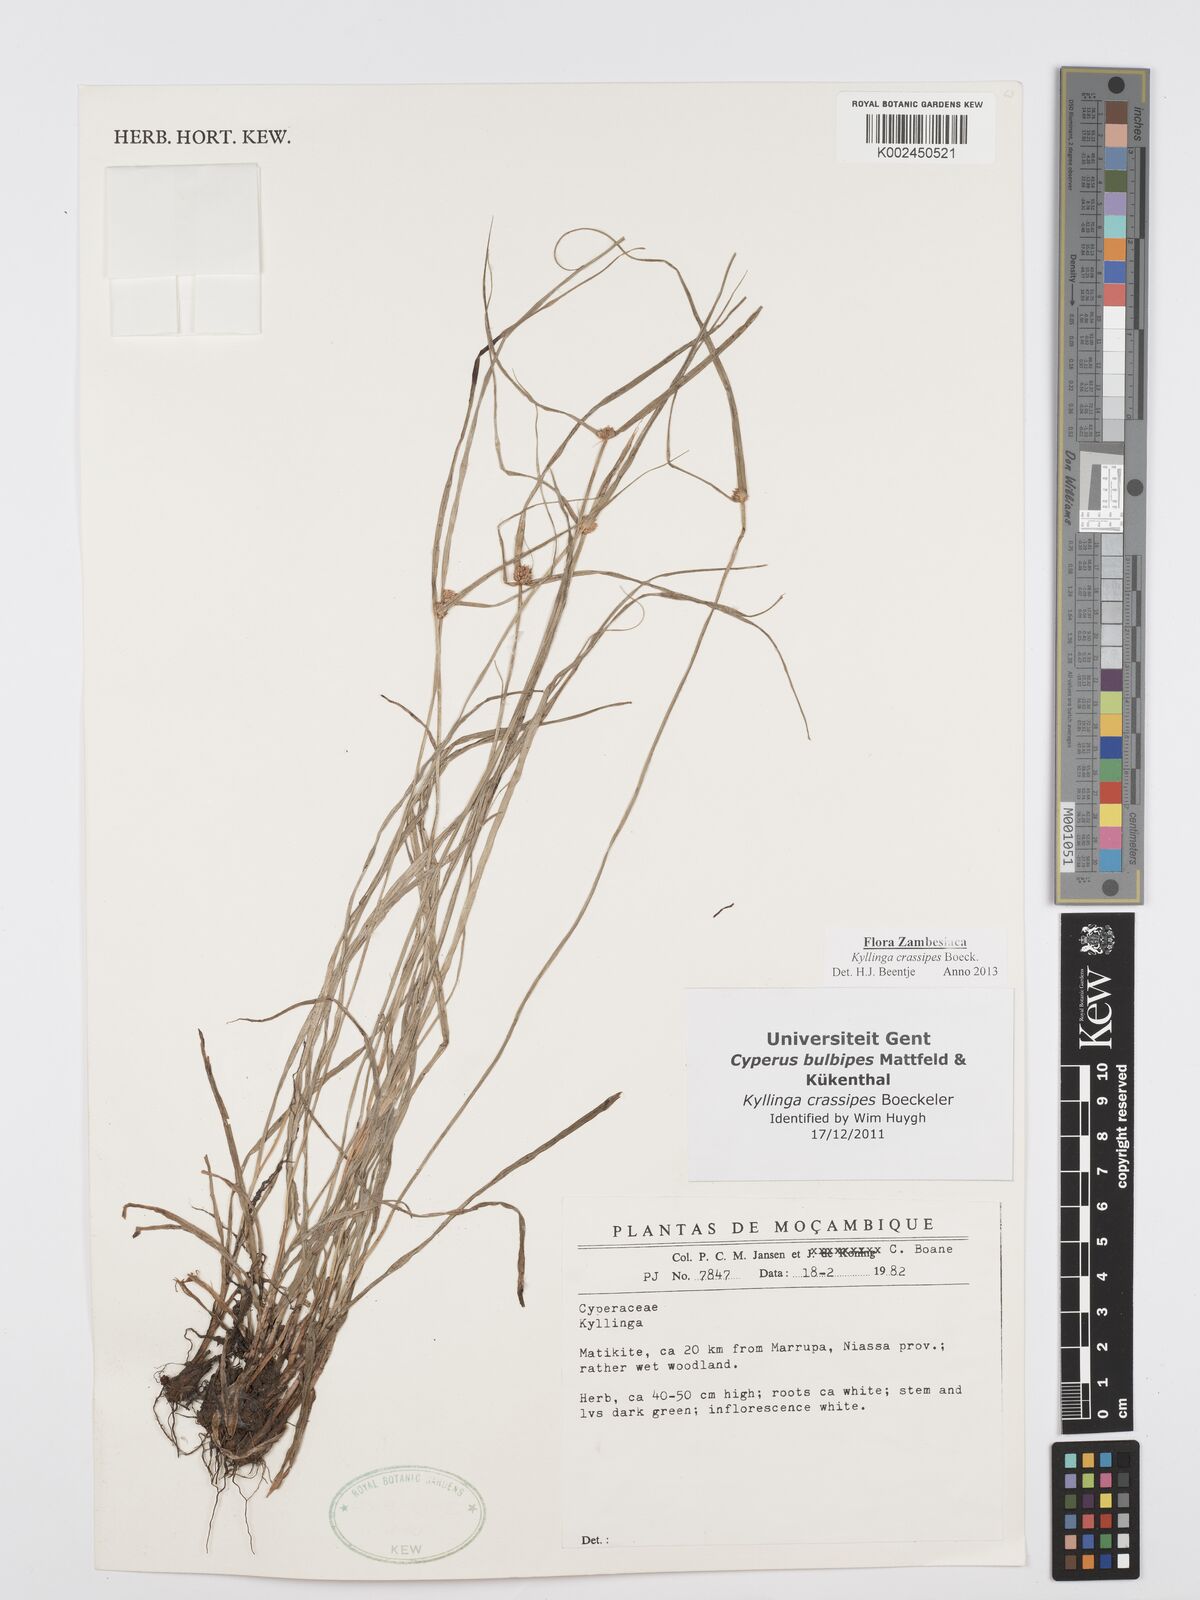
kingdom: Plantae
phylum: Tracheophyta
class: Liliopsida
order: Poales
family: Cyperaceae
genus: Cyperus
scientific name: Cyperus crassipes
